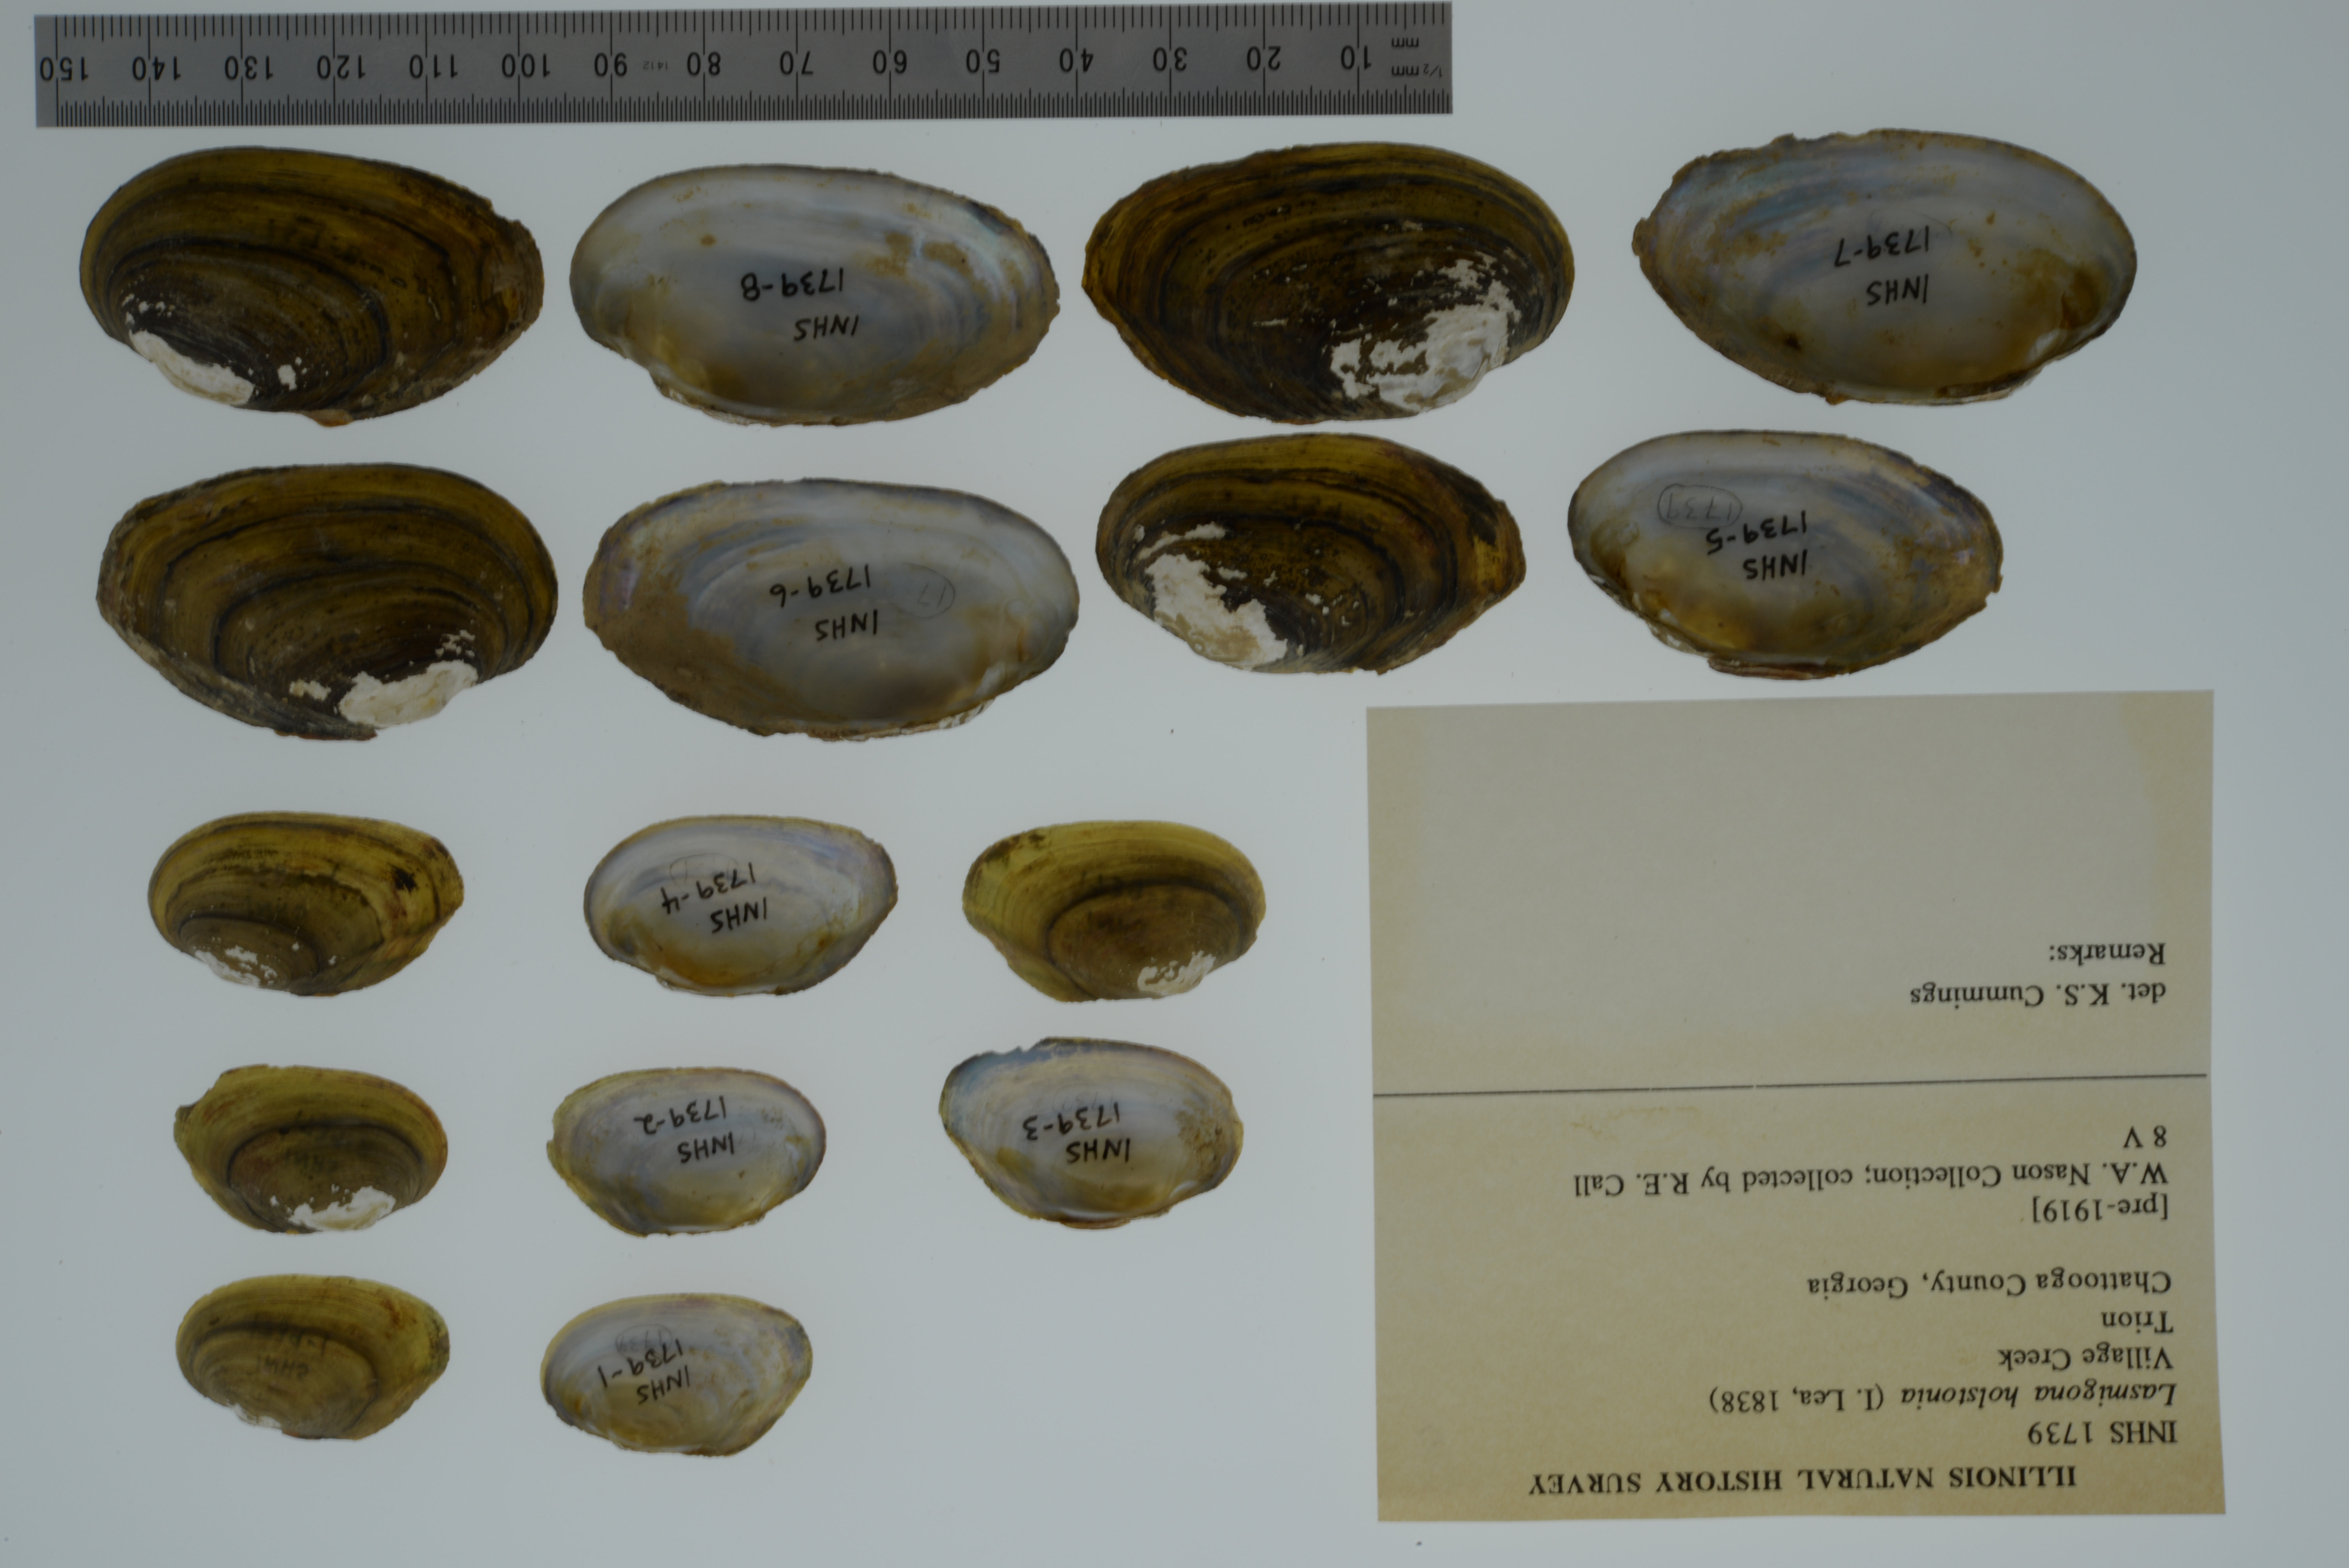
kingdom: Animalia
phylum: Mollusca
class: Bivalvia
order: Unionida
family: Unionidae
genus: Lasmigona
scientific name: Lasmigona holstonia
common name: Tennessee heelsplitter
